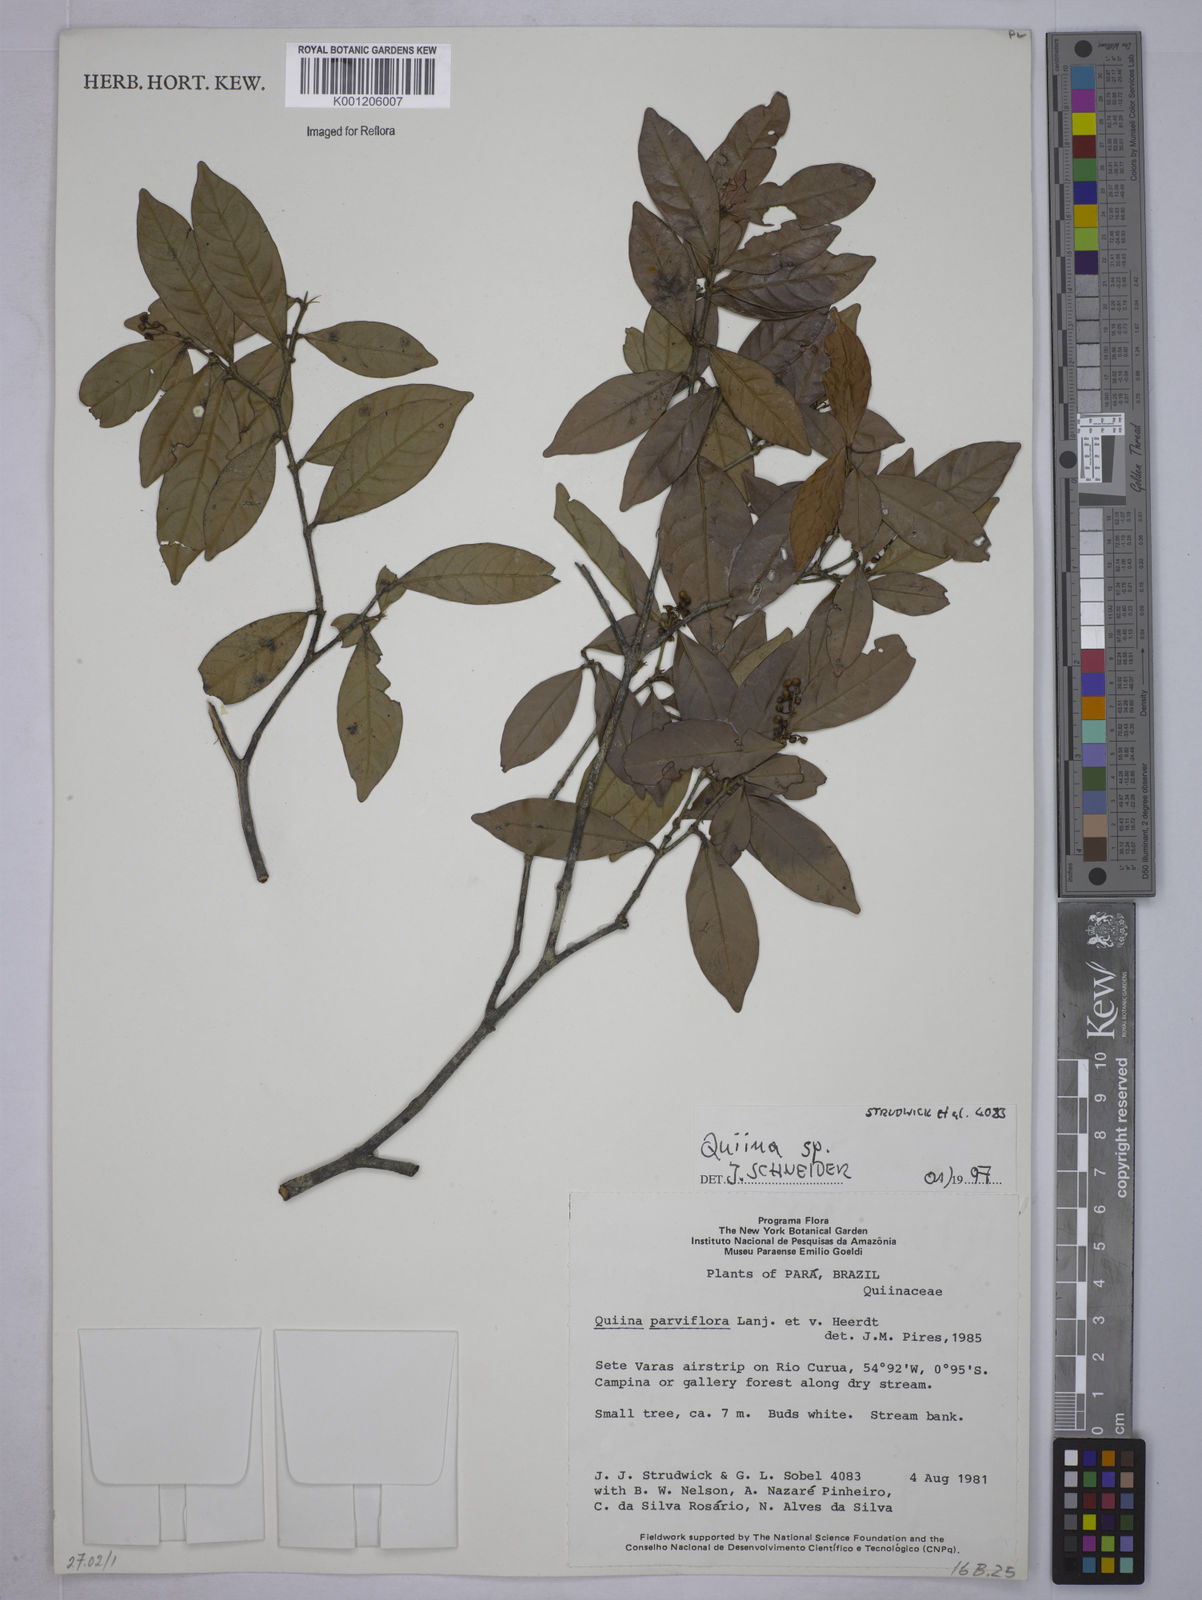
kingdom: Plantae
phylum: Tracheophyta
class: Magnoliopsida
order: Malpighiales
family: Quiinaceae
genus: Quiina
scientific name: Quiina
